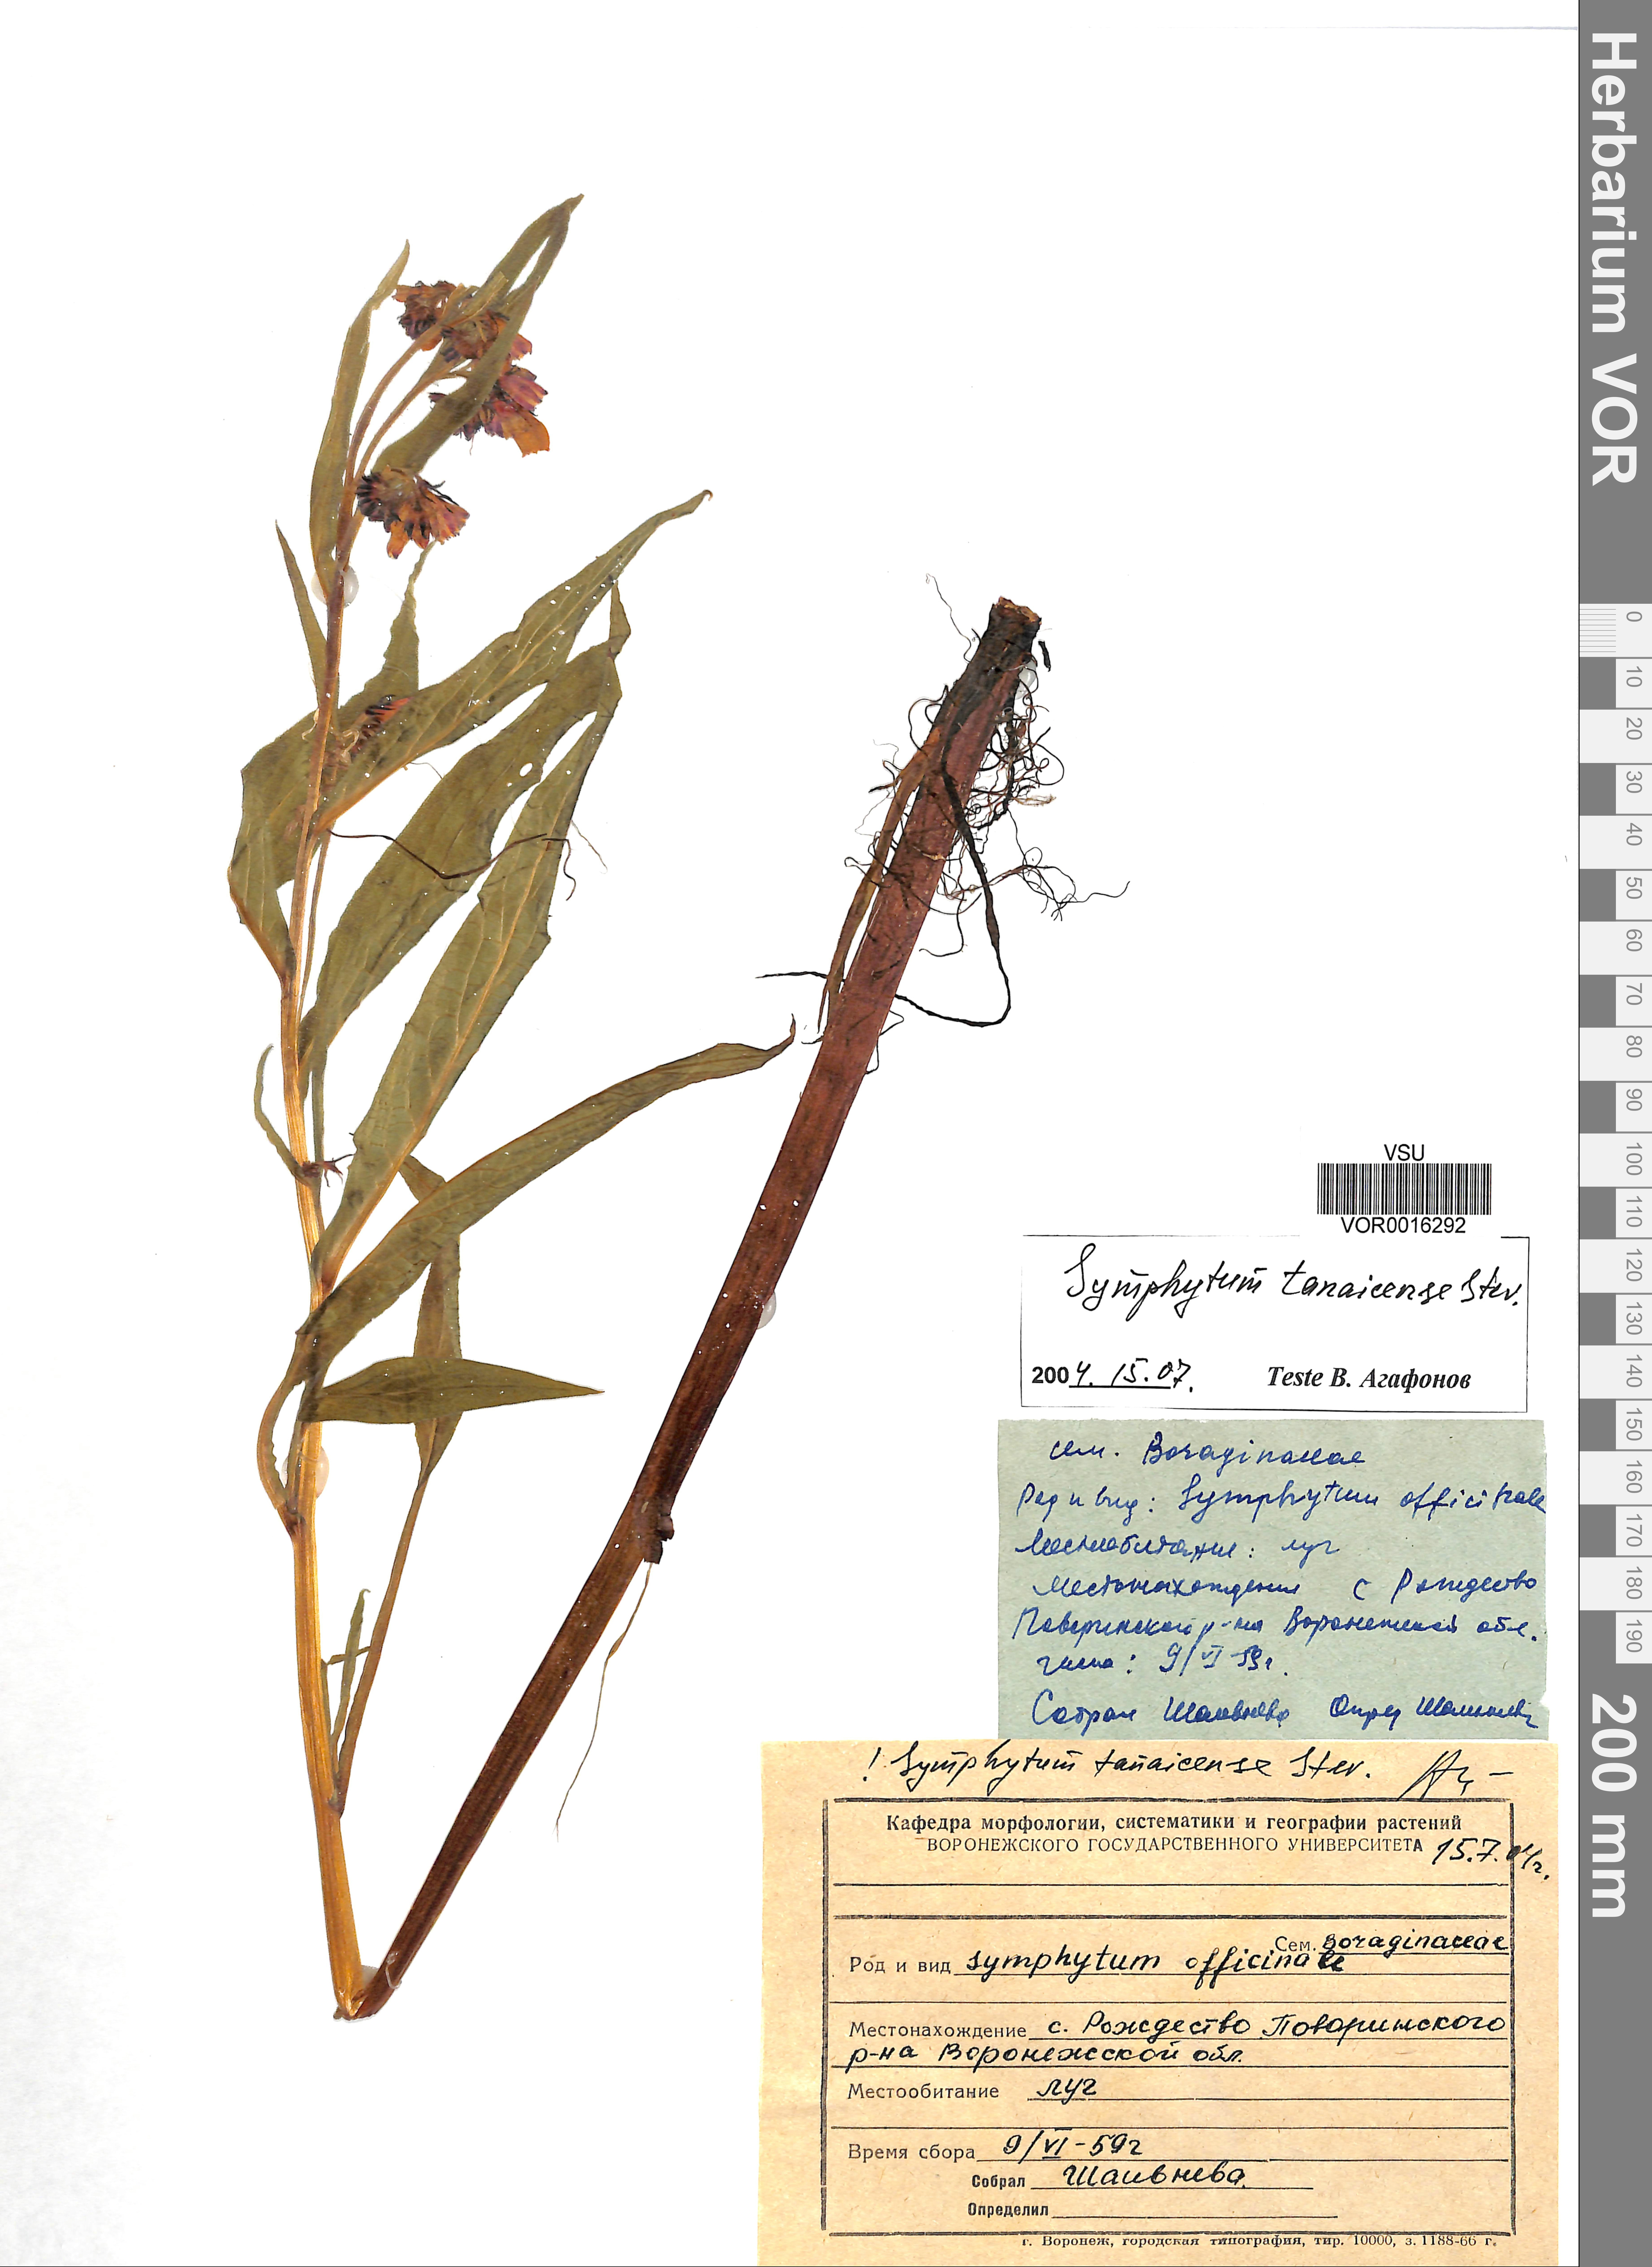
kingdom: Plantae
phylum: Tracheophyta
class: Magnoliopsida
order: Boraginales
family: Boraginaceae
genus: Symphytum
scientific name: Symphytum tauricum
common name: Crimean comfrey
